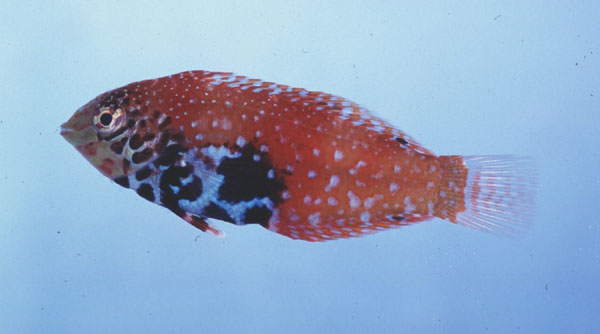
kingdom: Animalia
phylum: Chordata
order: Perciformes
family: Labridae
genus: Macropharyngodon
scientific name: Macropharyngodon bipartitus
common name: Divided wrasse
